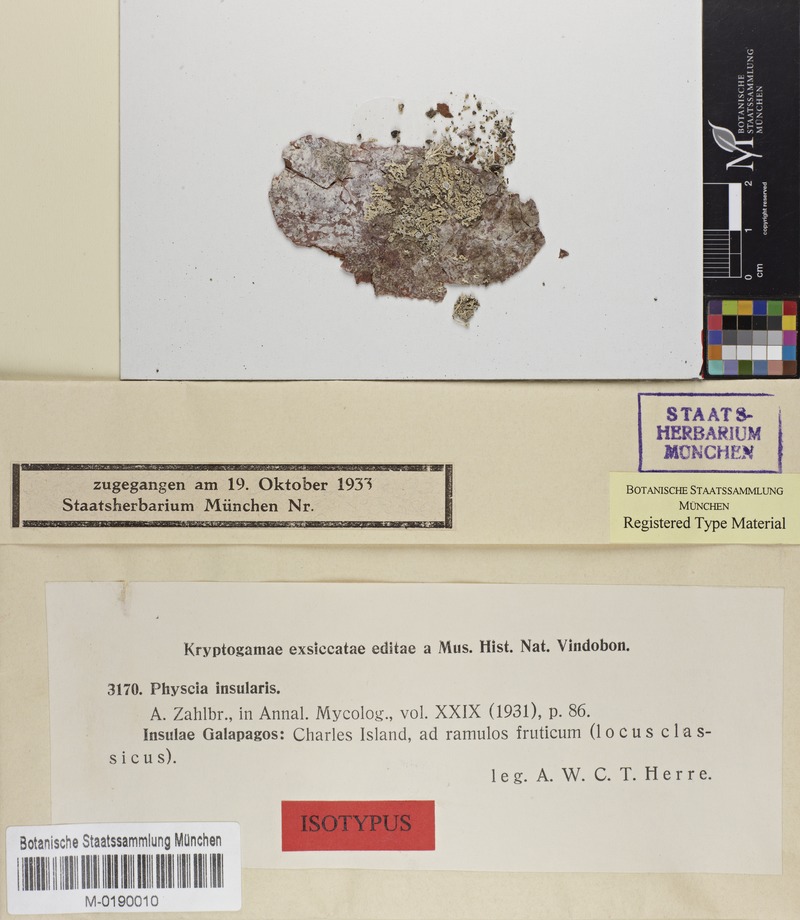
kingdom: Fungi
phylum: Ascomycota
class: Lecanoromycetes
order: Caliciales
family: Physciaceae
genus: Physcia
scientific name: Physcia insularis
